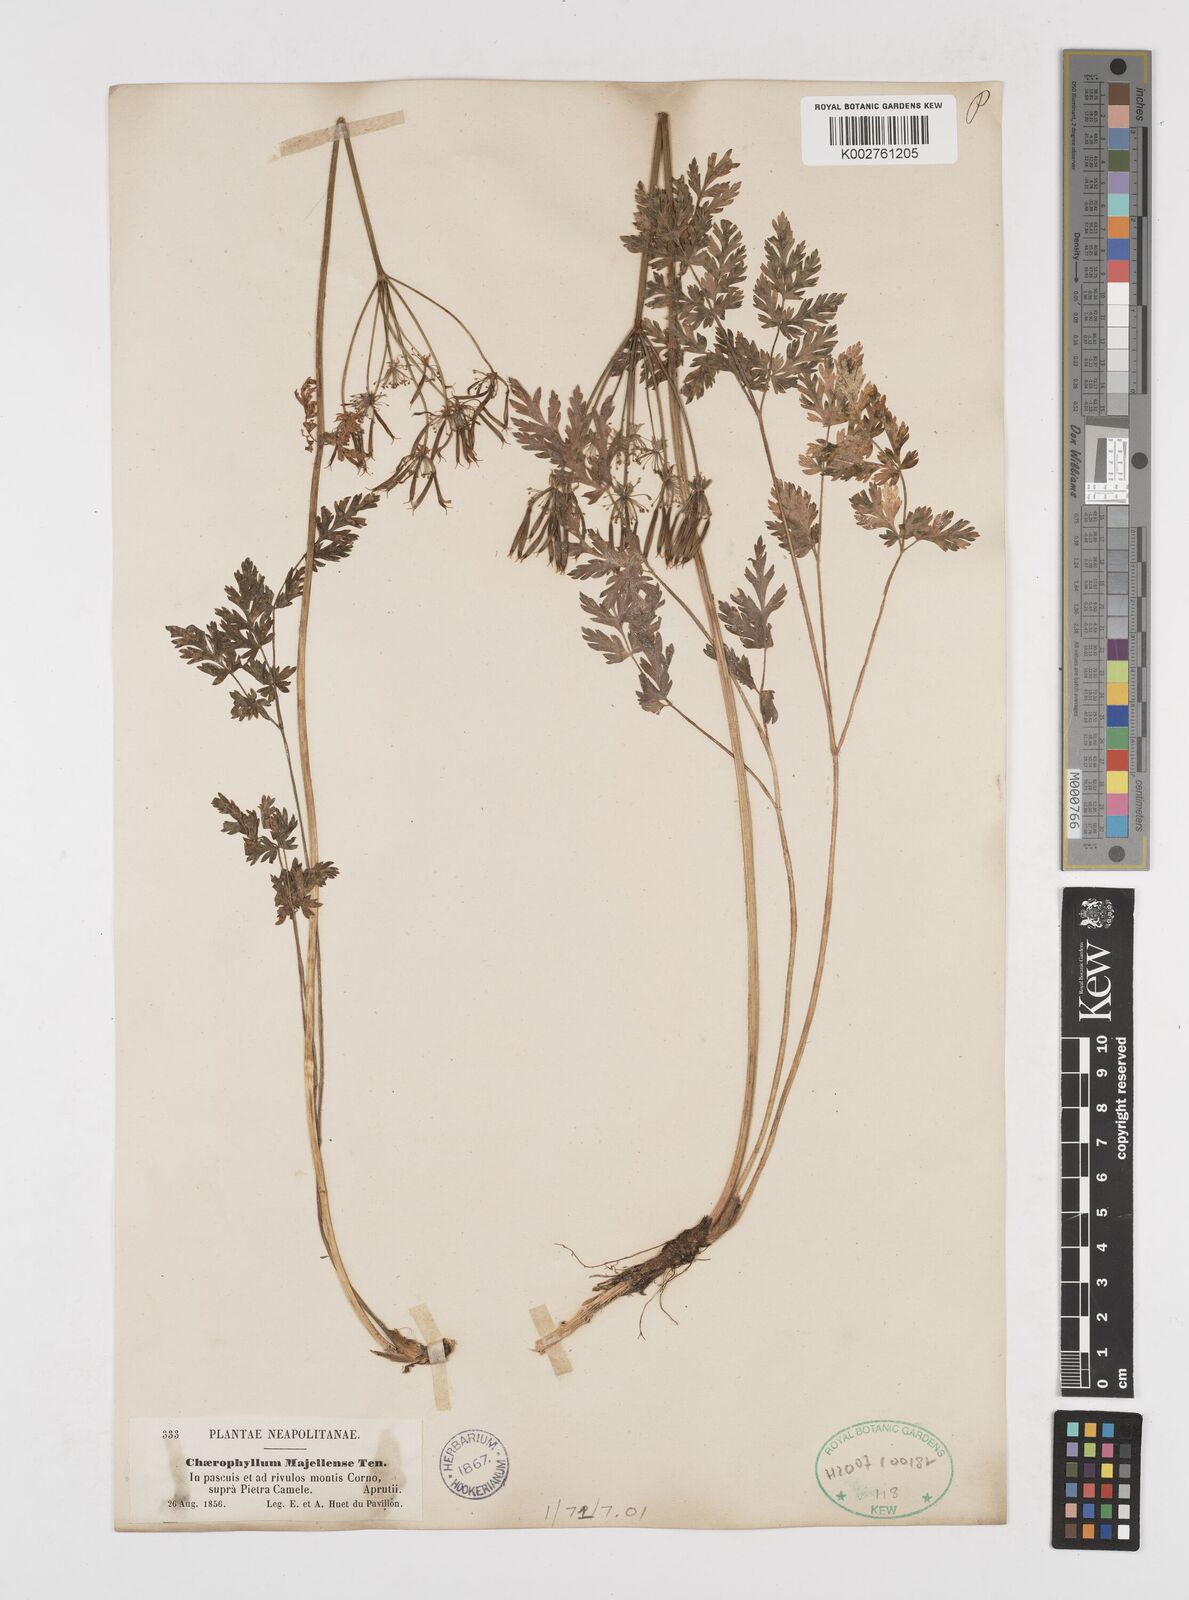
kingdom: Plantae
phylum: Tracheophyta
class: Magnoliopsida
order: Apiales
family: Apiaceae
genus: Chaerophyllum
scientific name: Chaerophyllum hirsutum
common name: Hairy chervil
